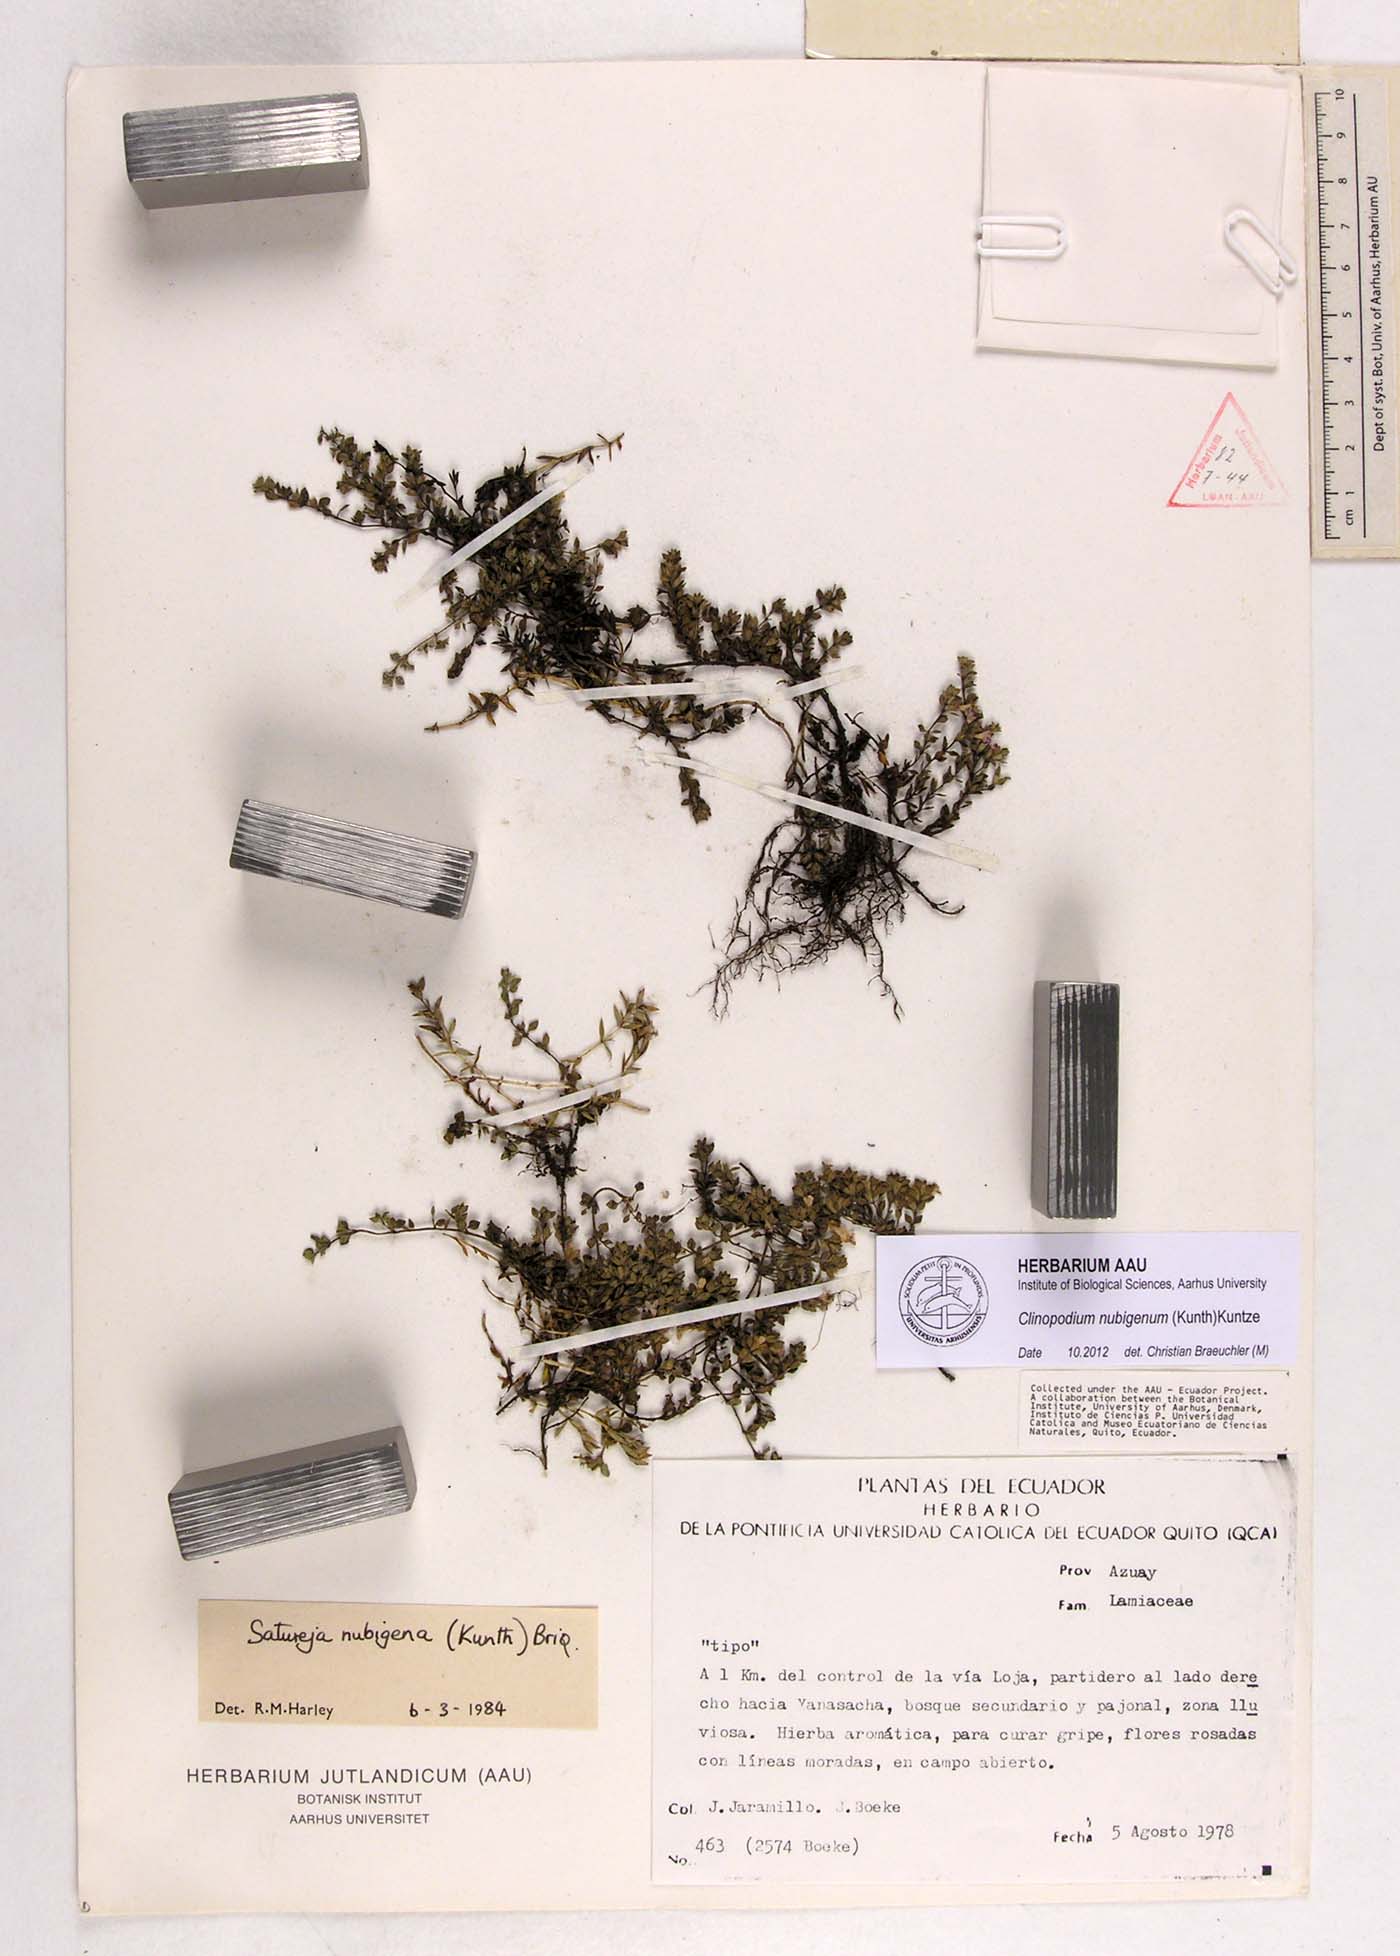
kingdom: Plantae
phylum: Tracheophyta
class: Magnoliopsida
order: Lamiales
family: Lamiaceae
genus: Clinopodium
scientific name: Clinopodium nubigenum
